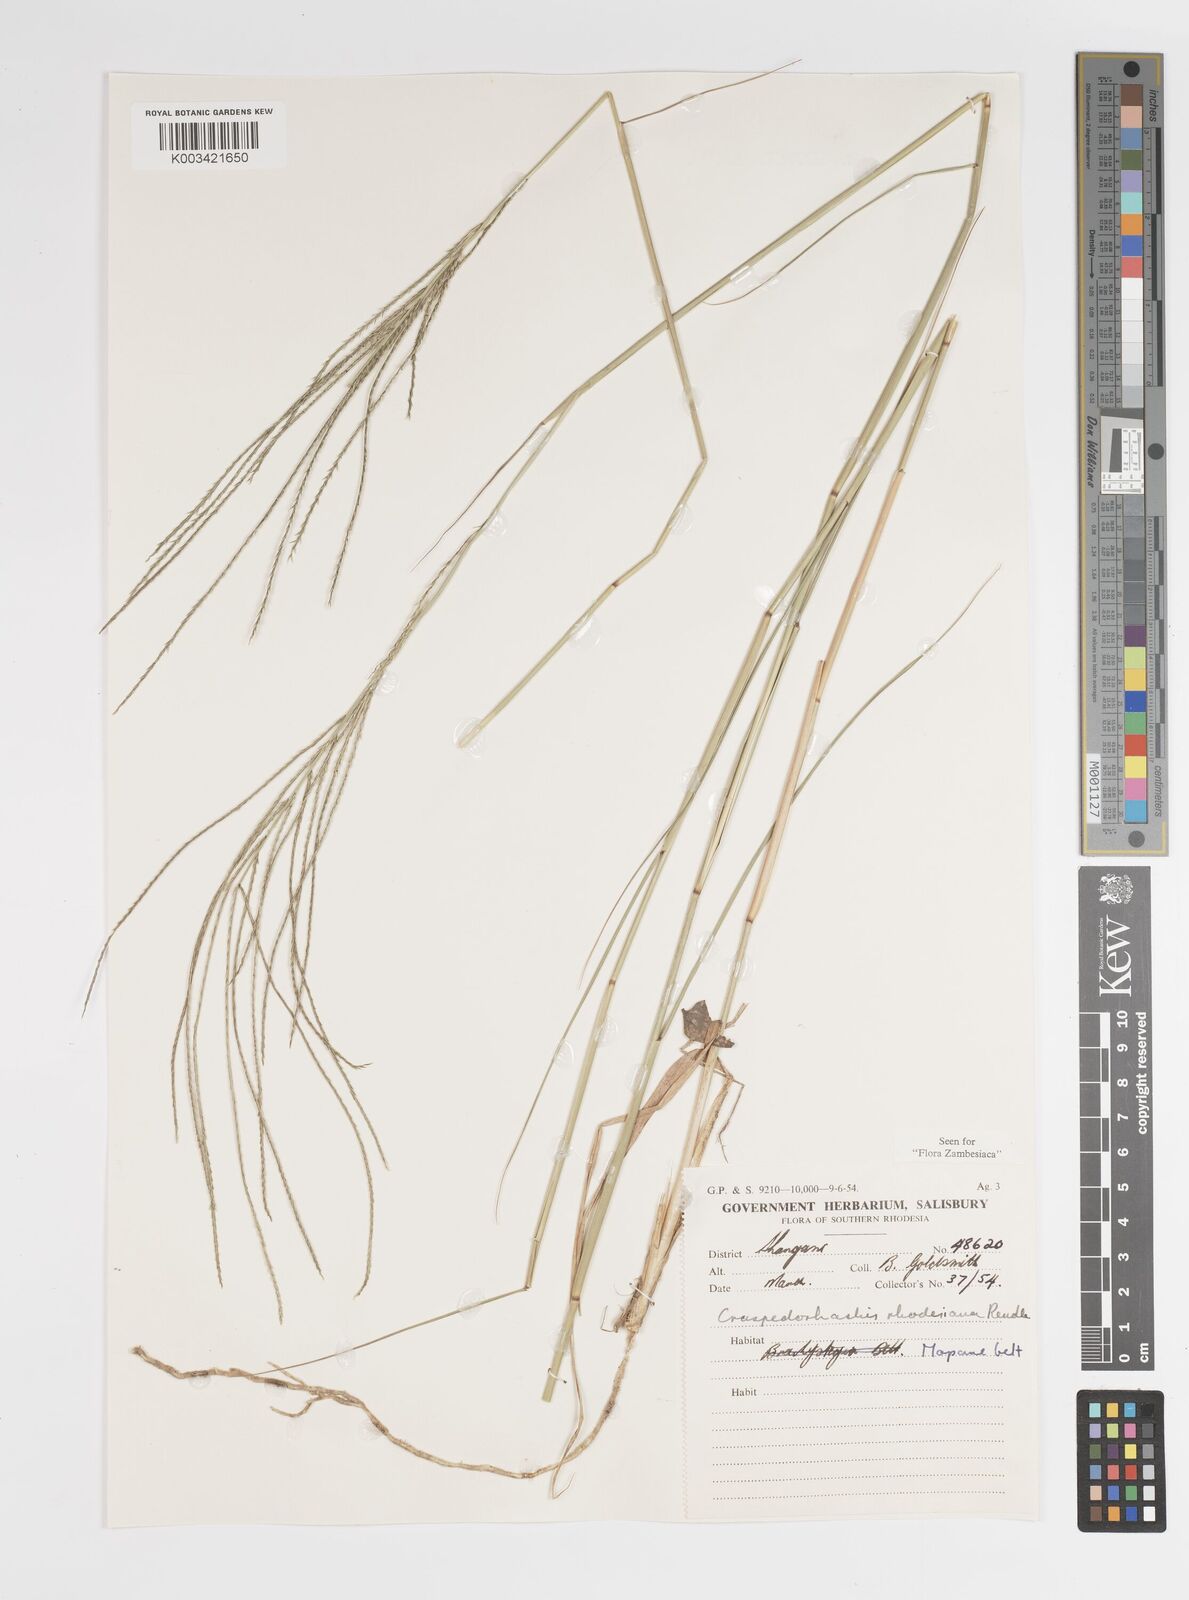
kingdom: Plantae
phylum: Tracheophyta
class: Liliopsida
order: Poales
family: Poaceae
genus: Craspedorhachis
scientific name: Craspedorhachis rhodesiana
